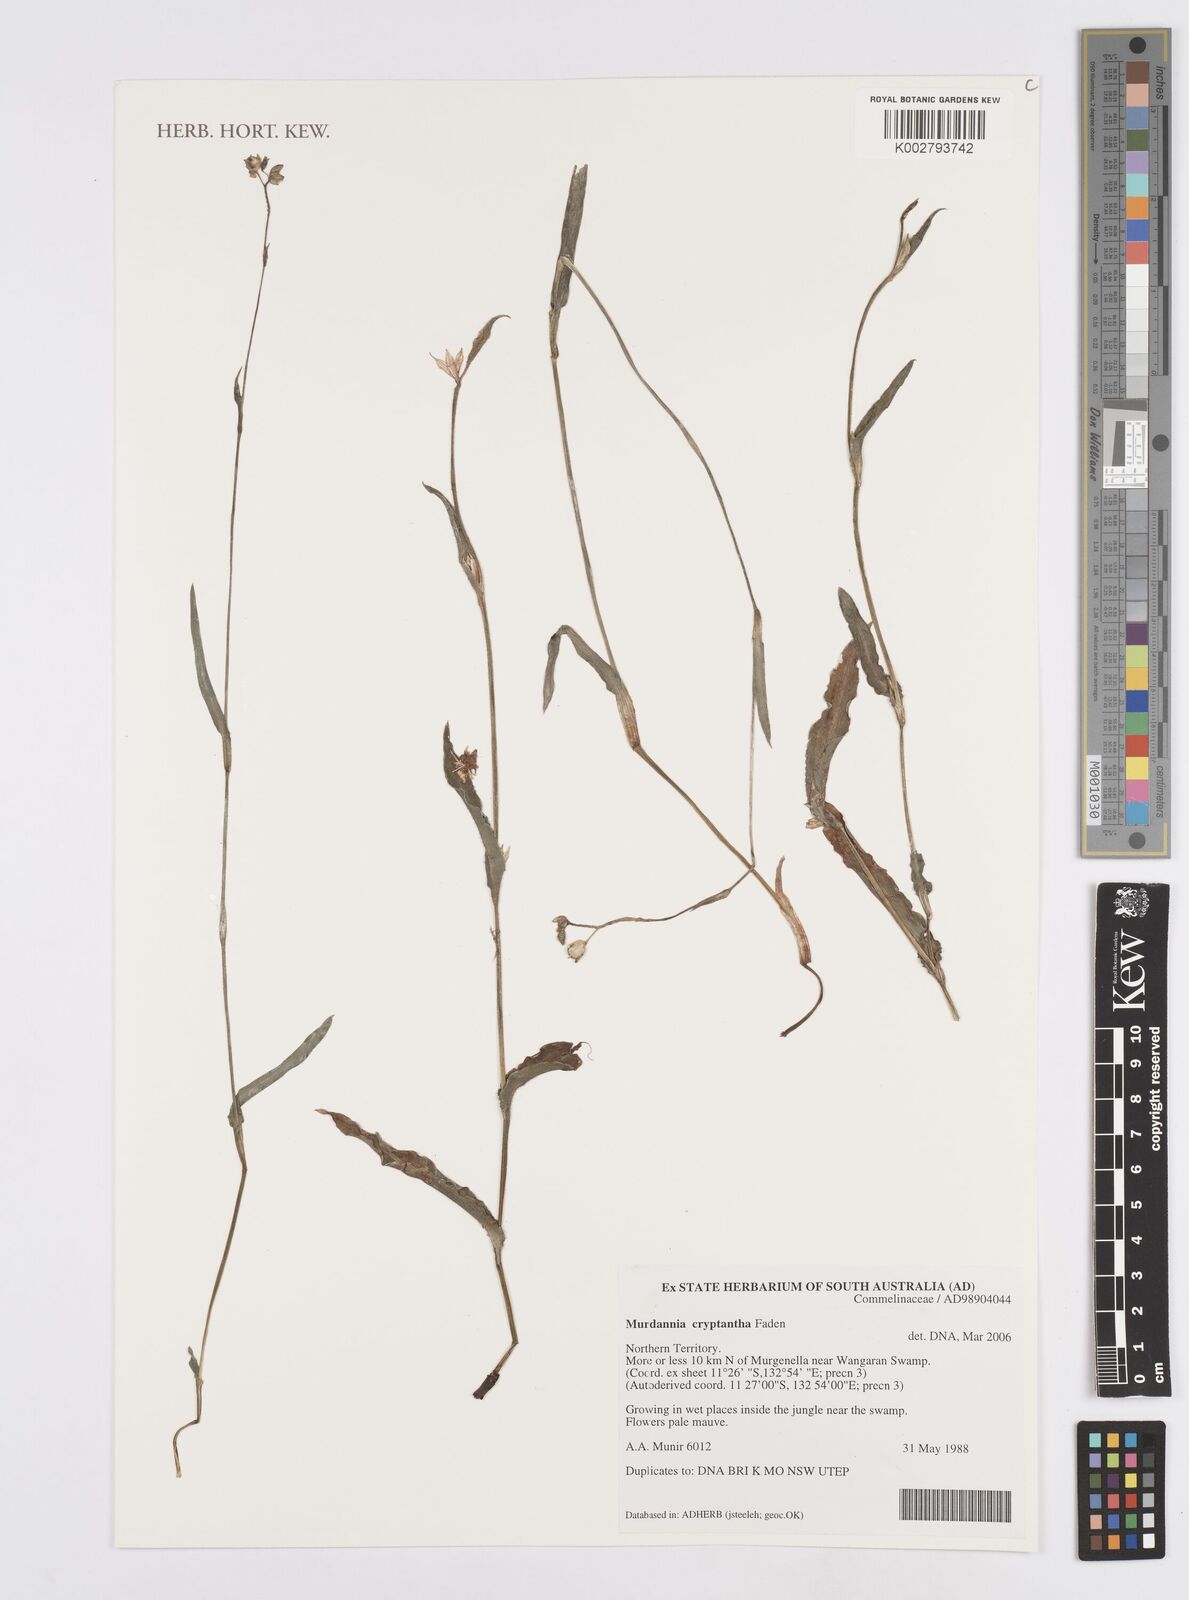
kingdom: Plantae
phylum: Tracheophyta
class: Liliopsida
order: Commelinales
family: Commelinaceae
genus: Murdannia
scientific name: Murdannia cryptantha
